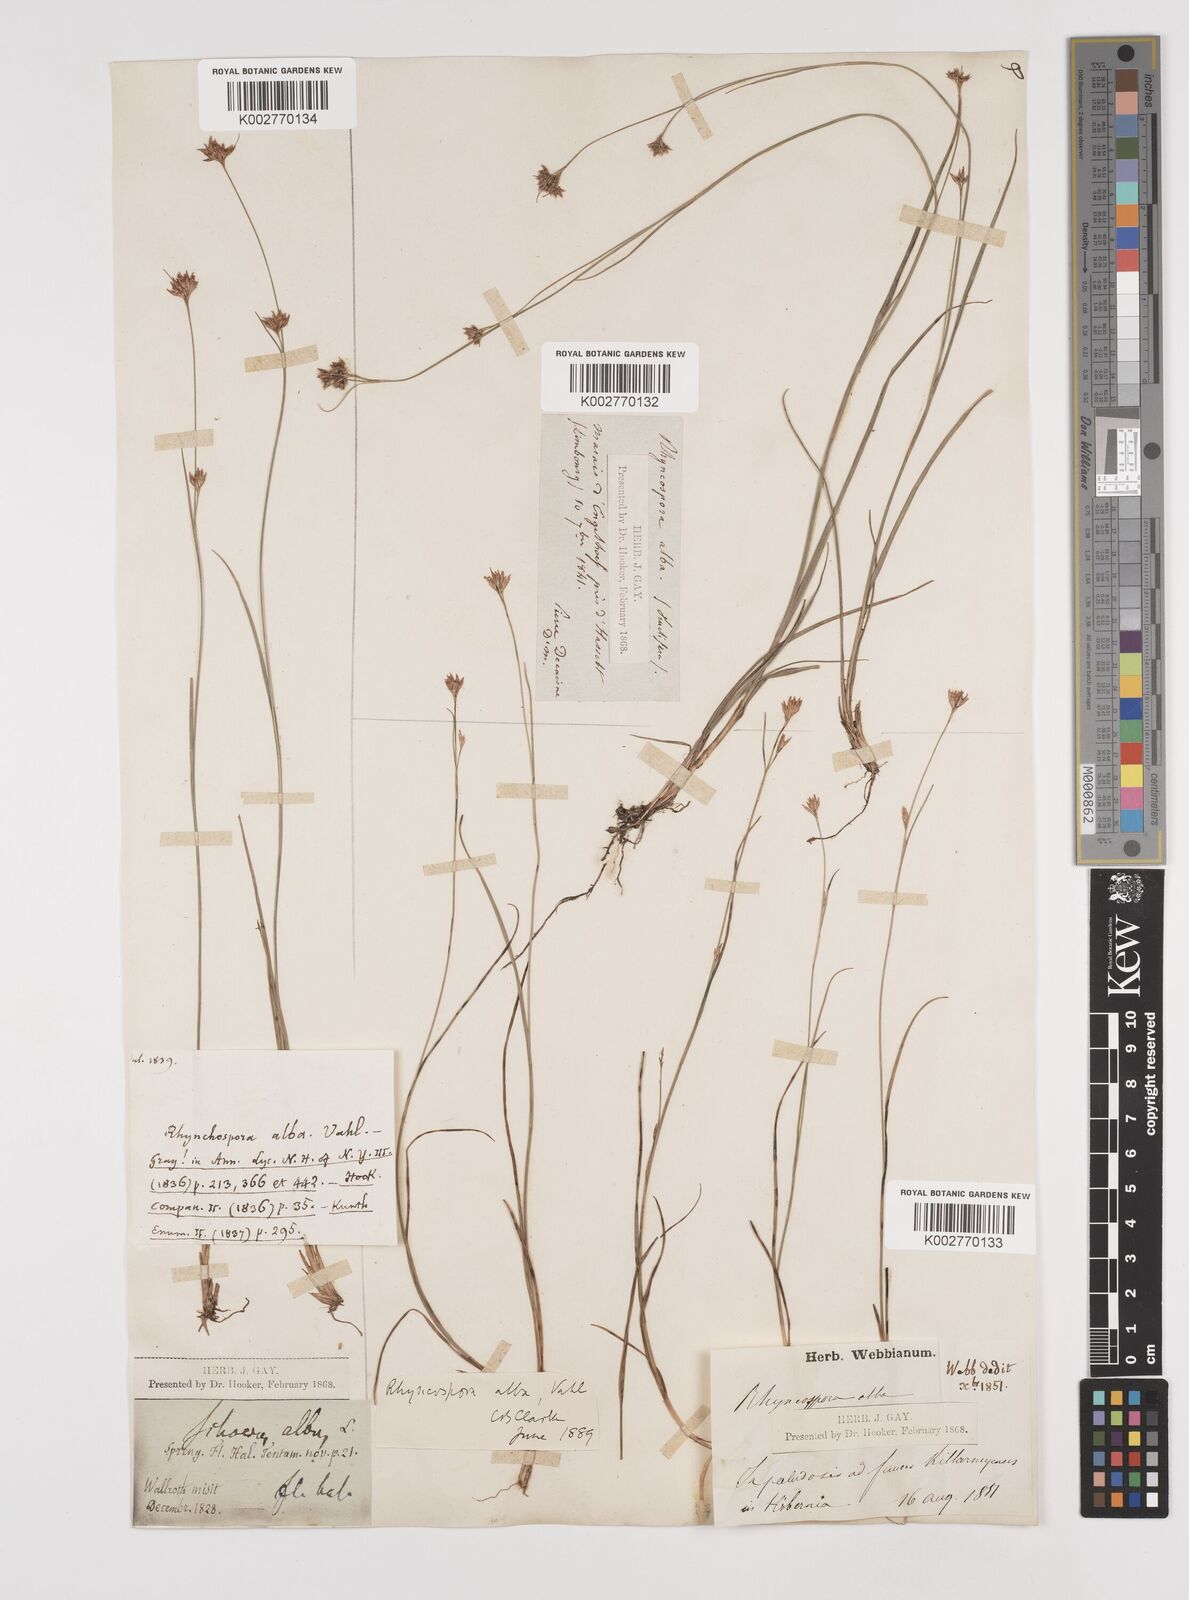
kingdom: Plantae
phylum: Tracheophyta
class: Liliopsida
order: Poales
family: Cyperaceae
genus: Rhynchospora
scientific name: Rhynchospora alba
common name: White beak-sedge
